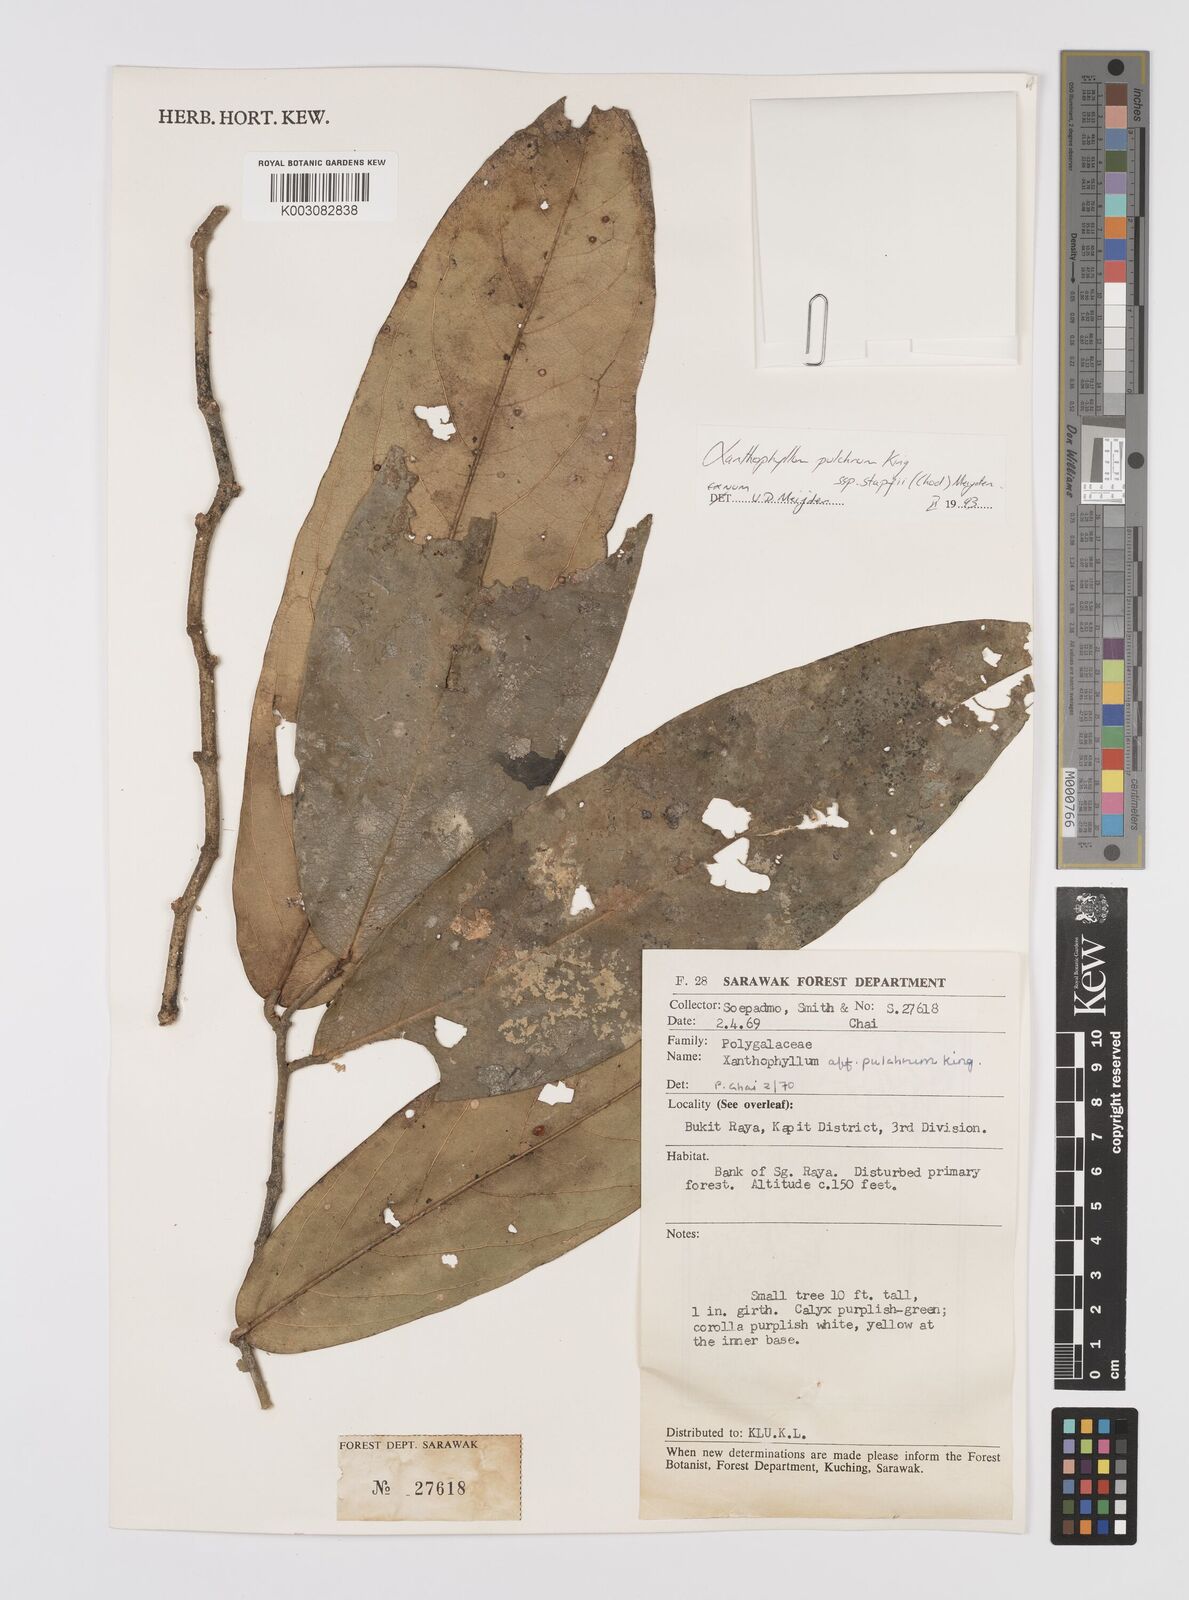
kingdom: Plantae
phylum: Tracheophyta
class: Magnoliopsida
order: Fabales
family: Polygalaceae
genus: Xanthophyllum
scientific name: Xanthophyllum pulchrum
